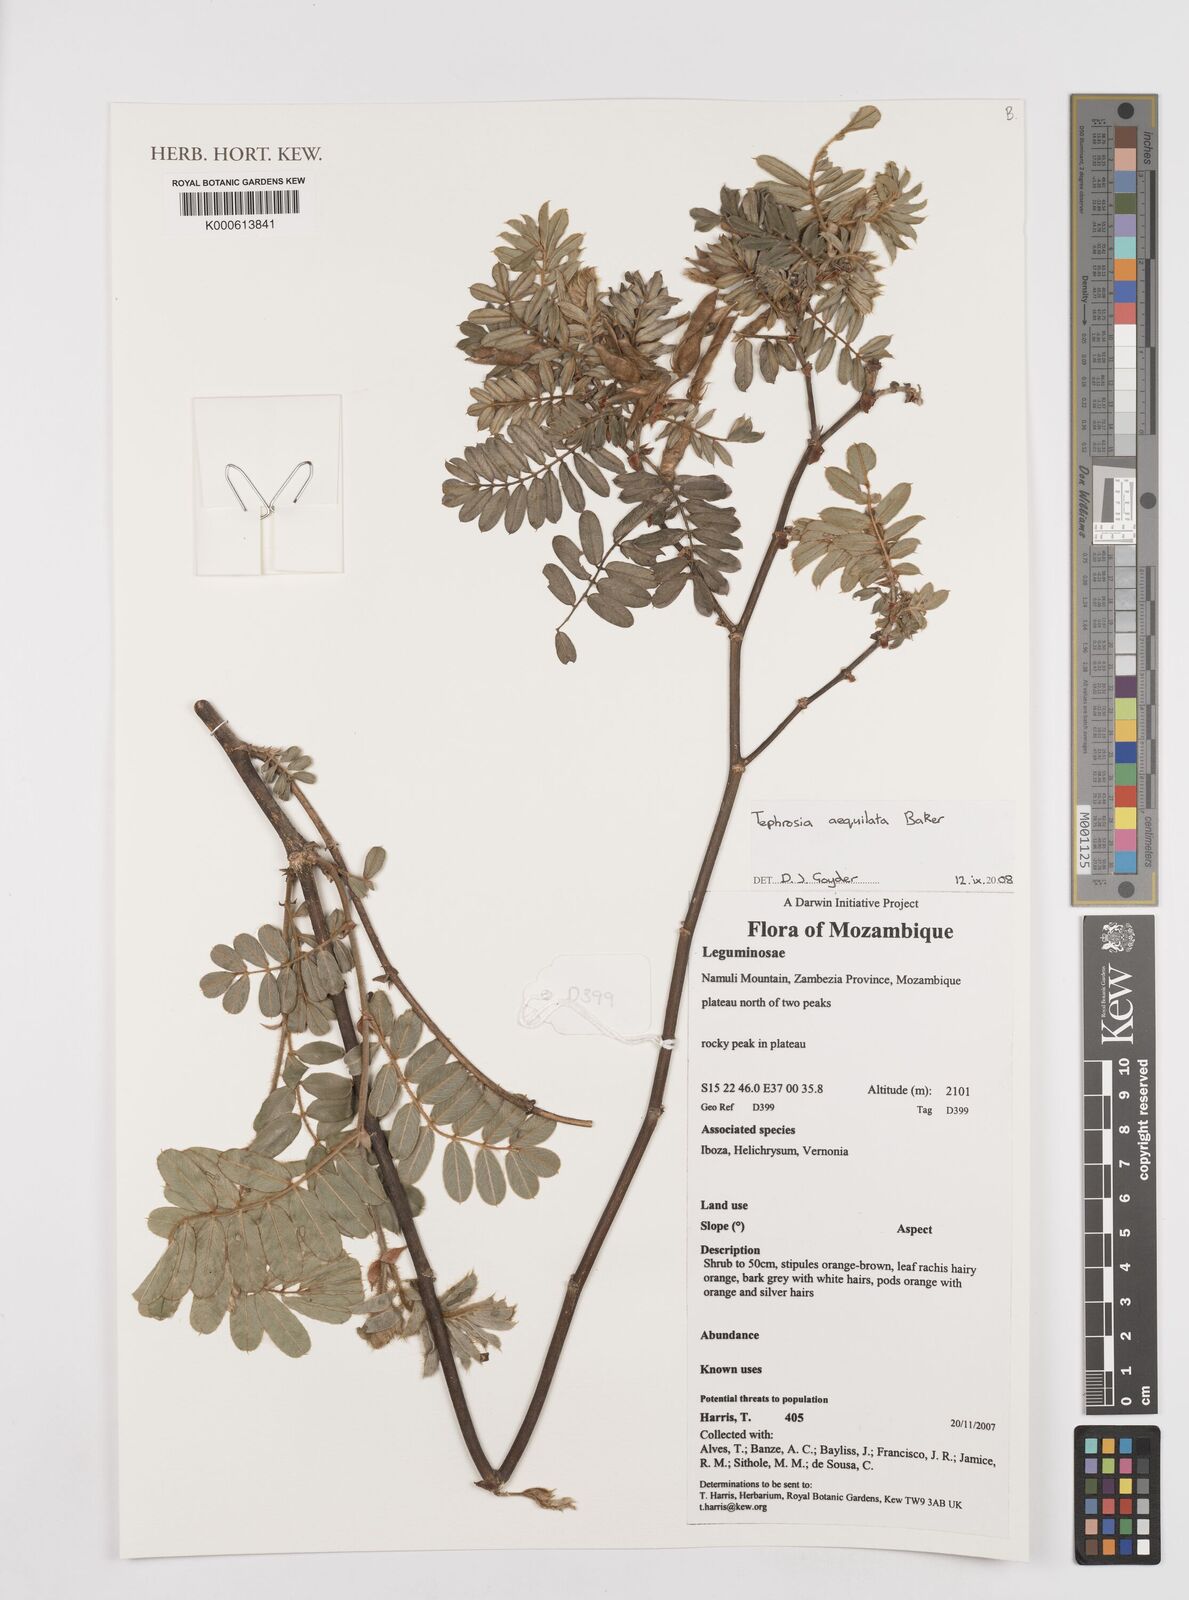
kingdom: Plantae
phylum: Tracheophyta
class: Magnoliopsida
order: Fabales
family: Fabaceae
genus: Tephrosia
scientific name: Tephrosia aequilata
